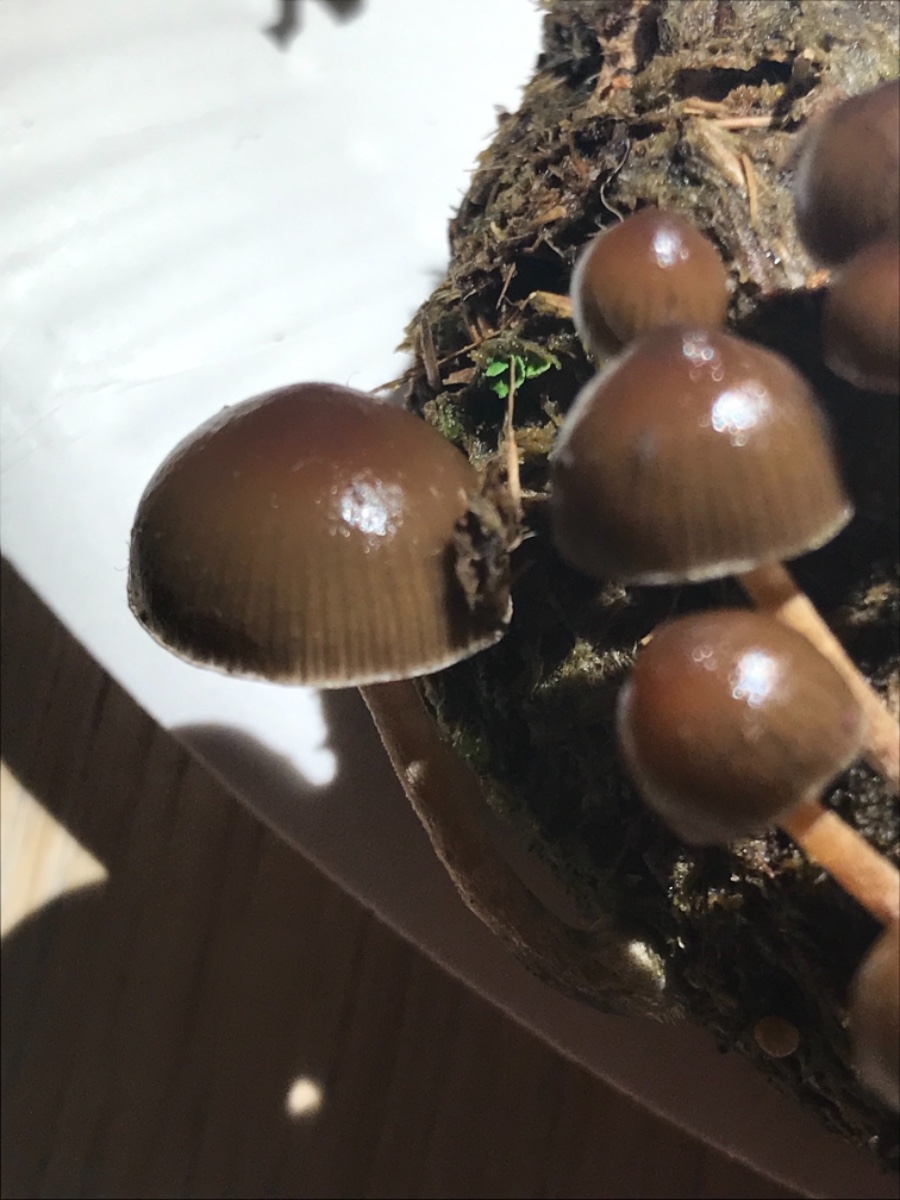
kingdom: Fungi
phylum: Basidiomycota
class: Agaricomycetes
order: Agaricales
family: Strophariaceae
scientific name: Strophariaceae
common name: bredbladfamilien
